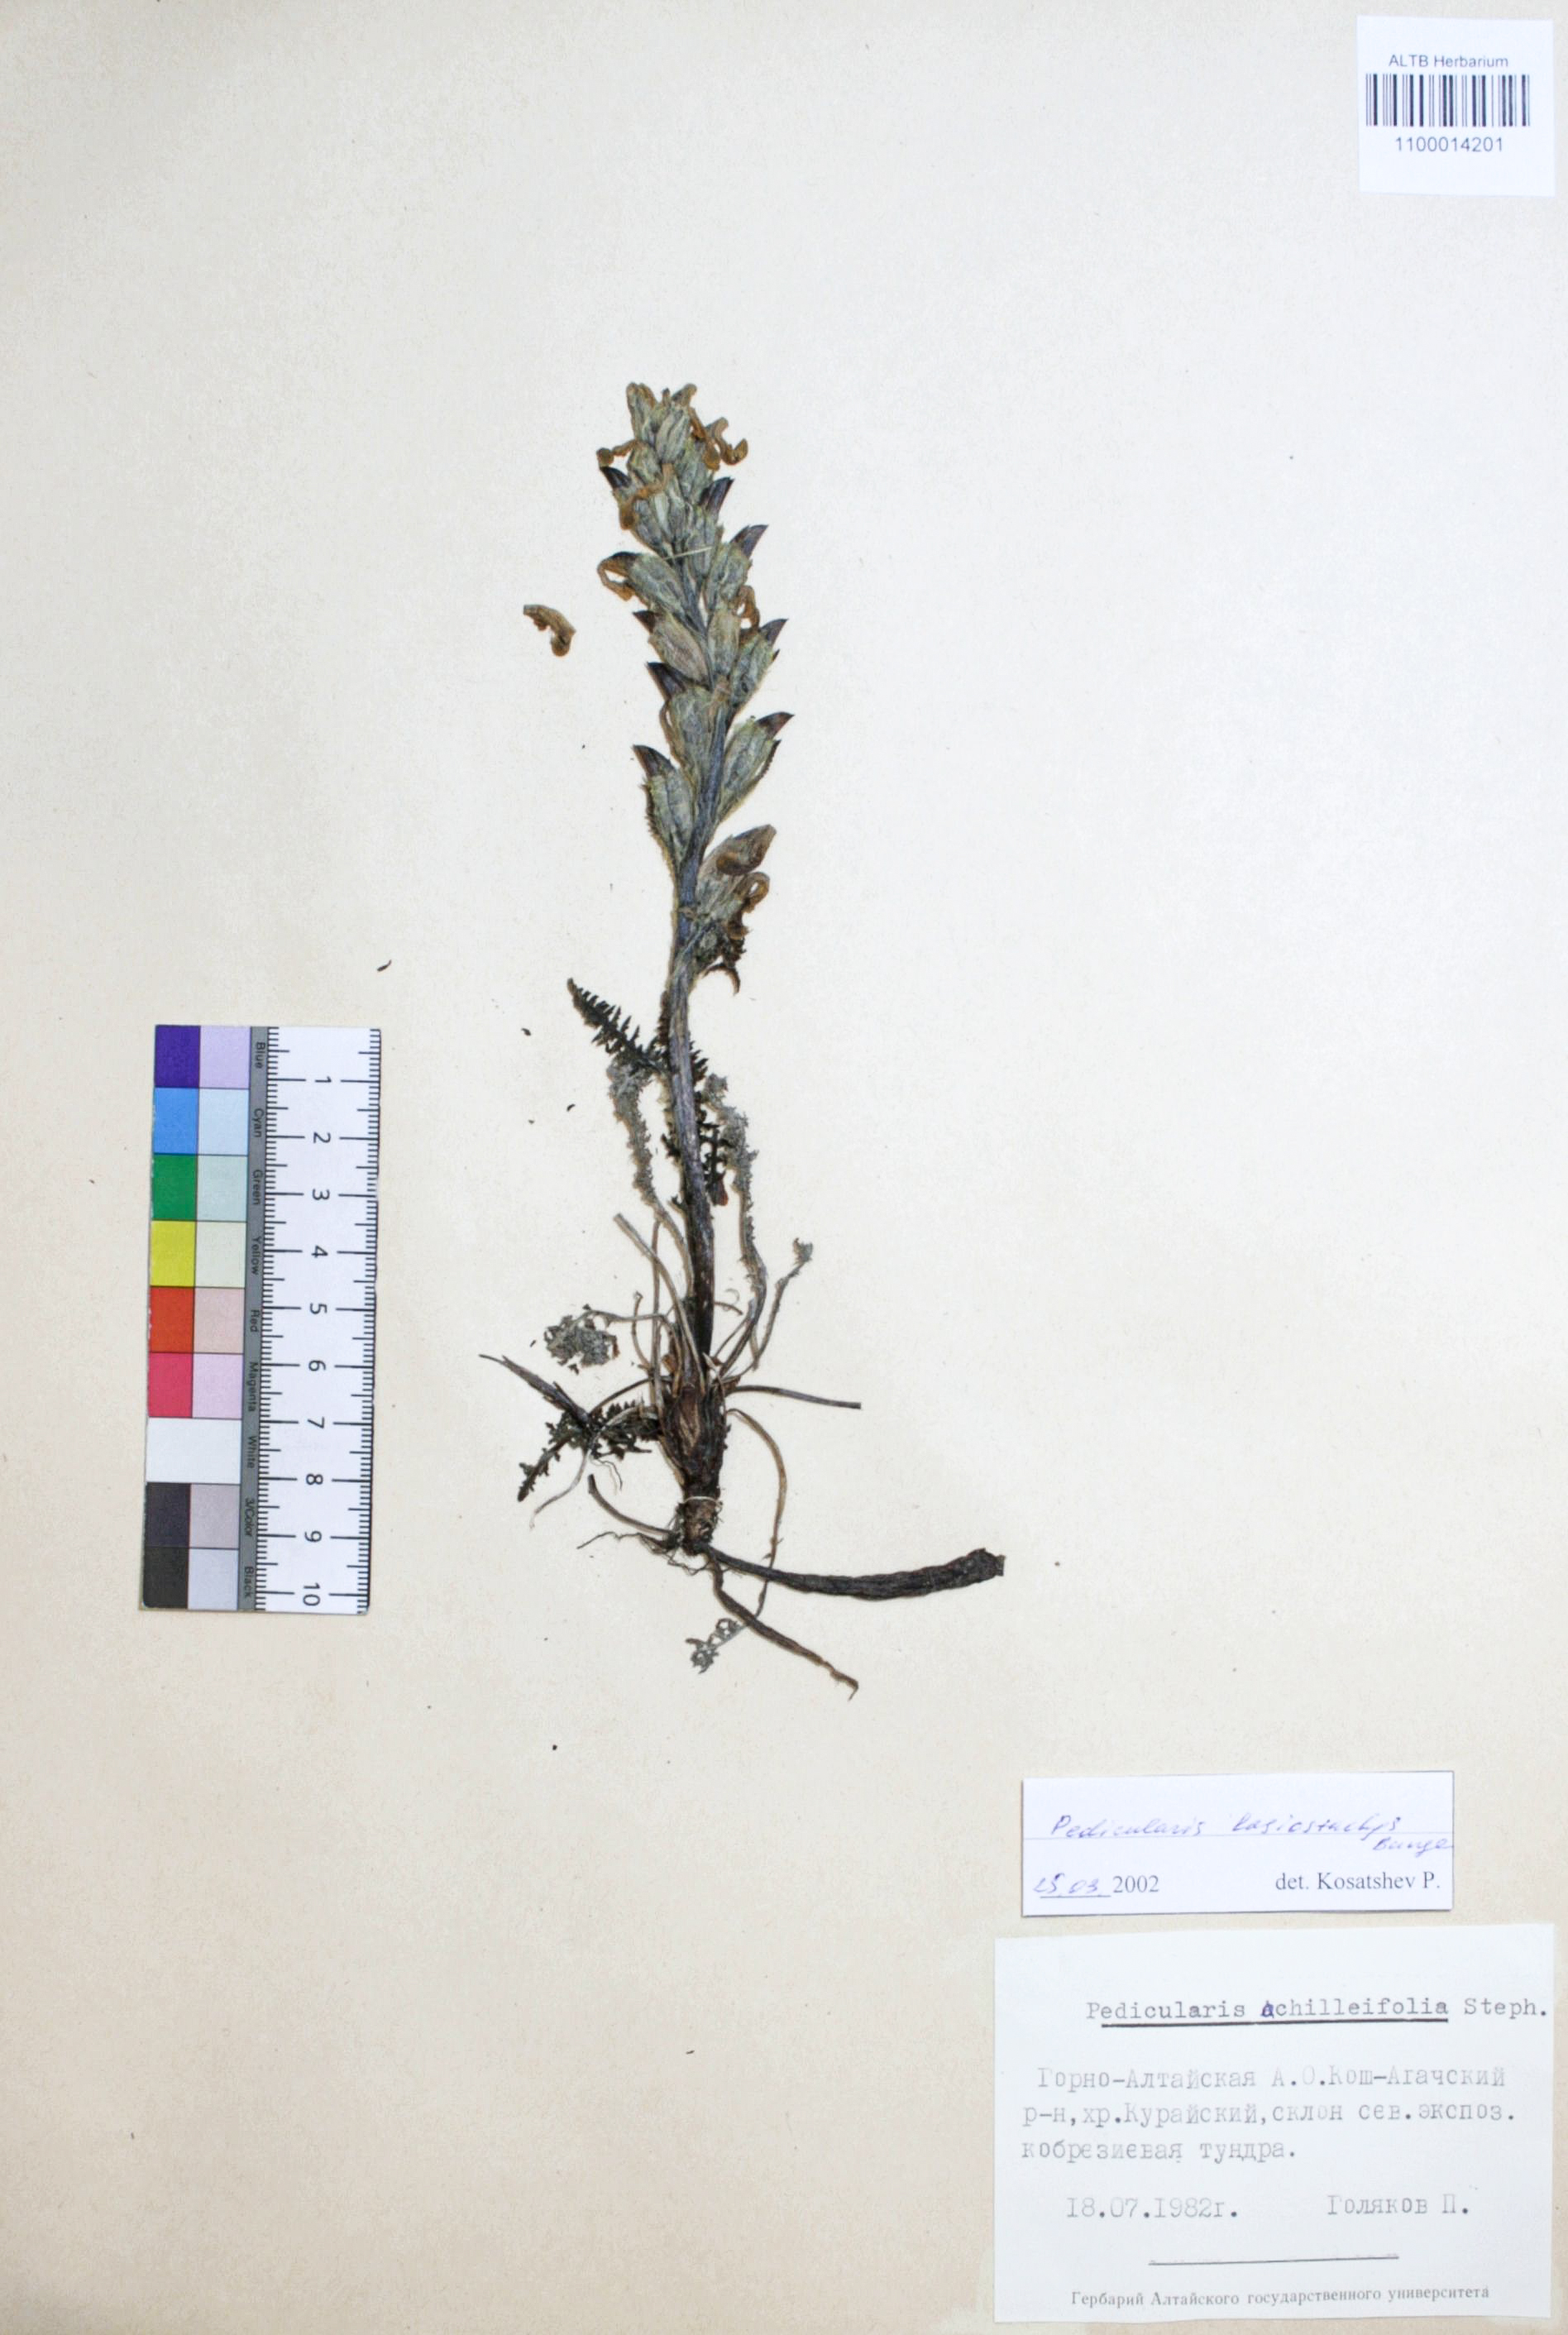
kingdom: Plantae
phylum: Tracheophyta
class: Magnoliopsida
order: Lamiales
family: Orobanchaceae
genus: Pedicularis
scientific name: Pedicularis lasiostachys
